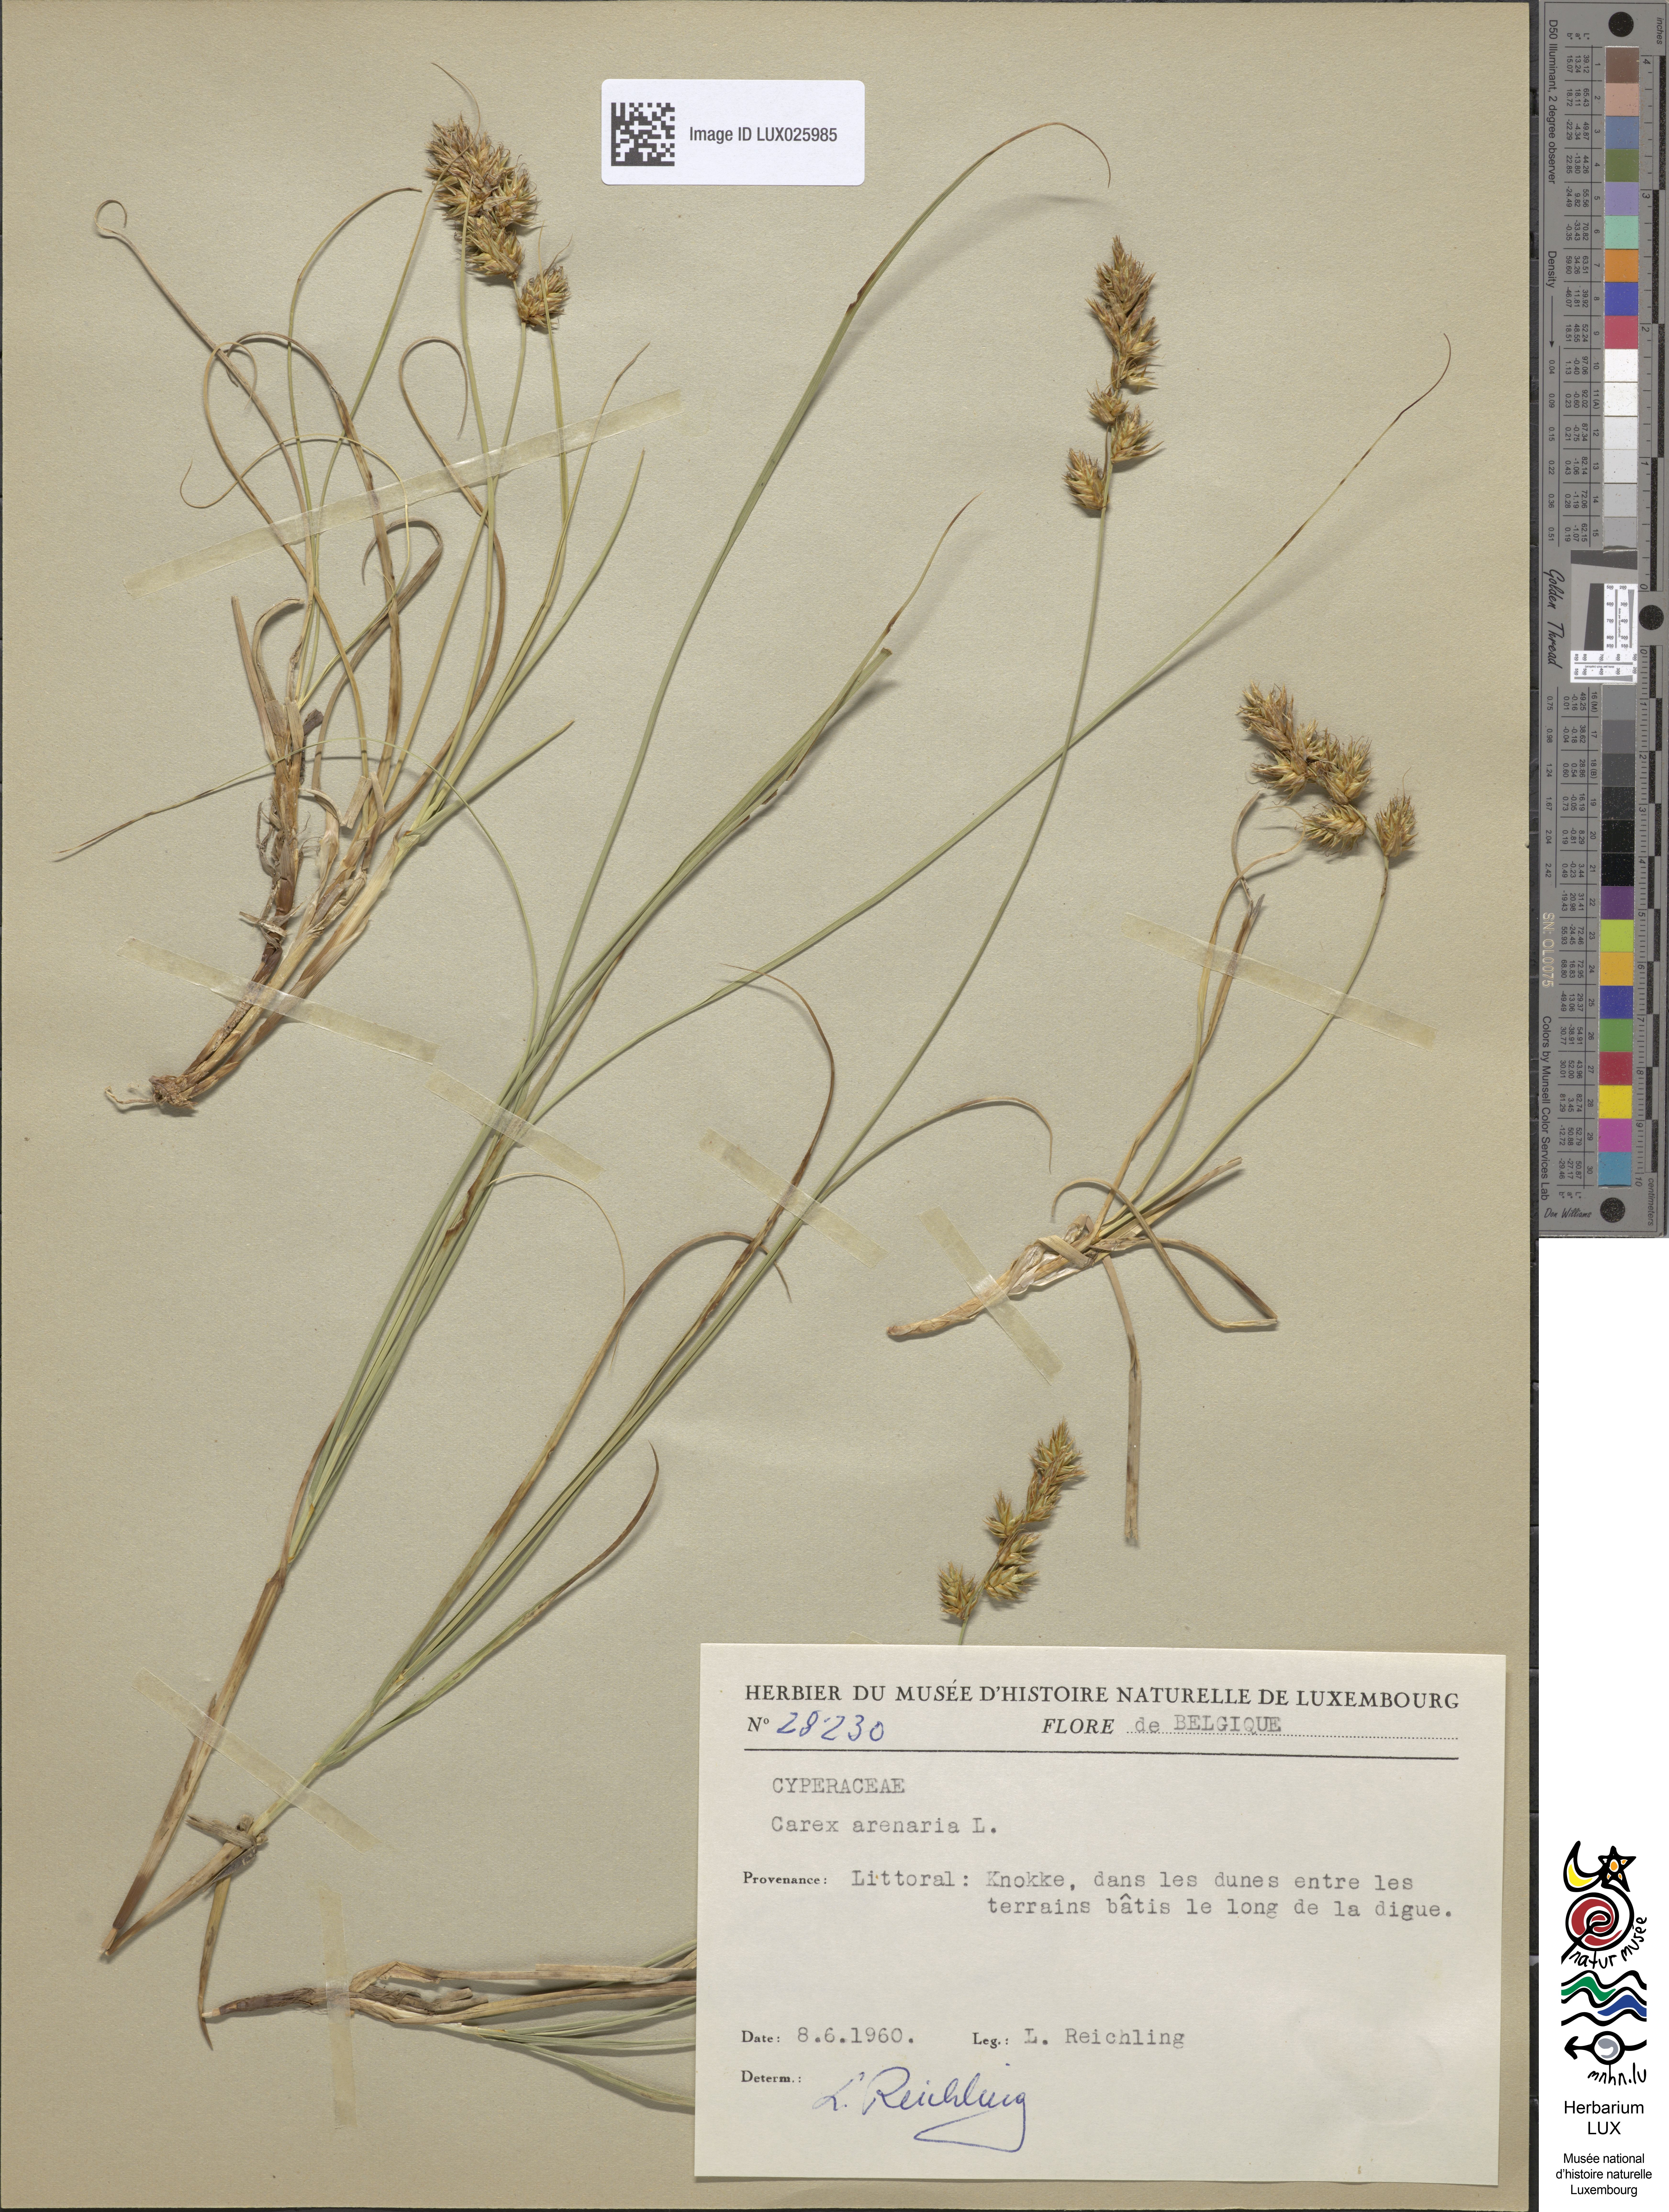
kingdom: Plantae
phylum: Tracheophyta
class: Liliopsida
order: Poales
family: Cyperaceae
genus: Carex
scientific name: Carex arenaria
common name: Sand sedge
